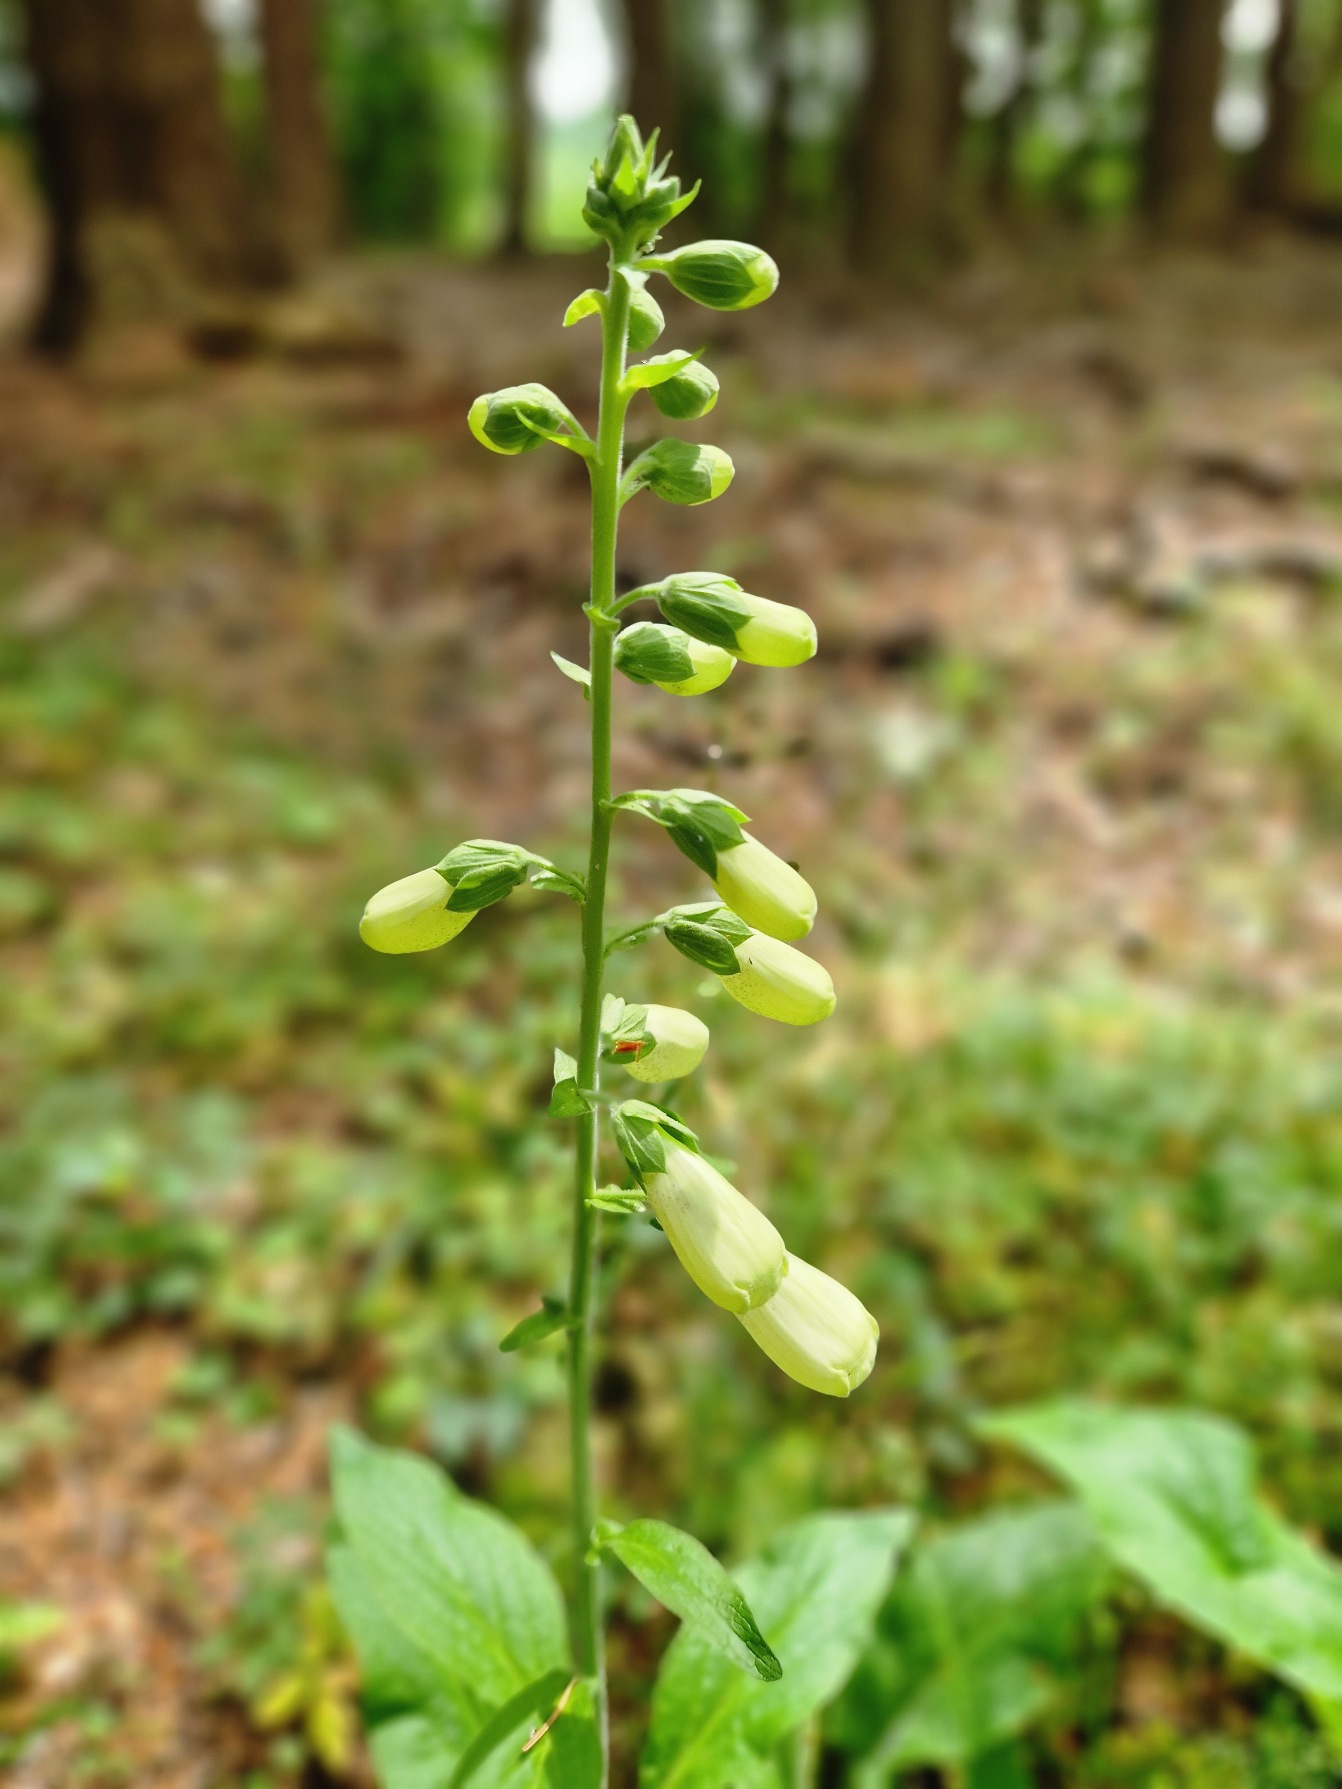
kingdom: Plantae
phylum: Tracheophyta
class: Magnoliopsida
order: Lamiales
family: Plantaginaceae
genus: Digitalis
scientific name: Digitalis purpurea
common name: Almindelig fingerbøl
